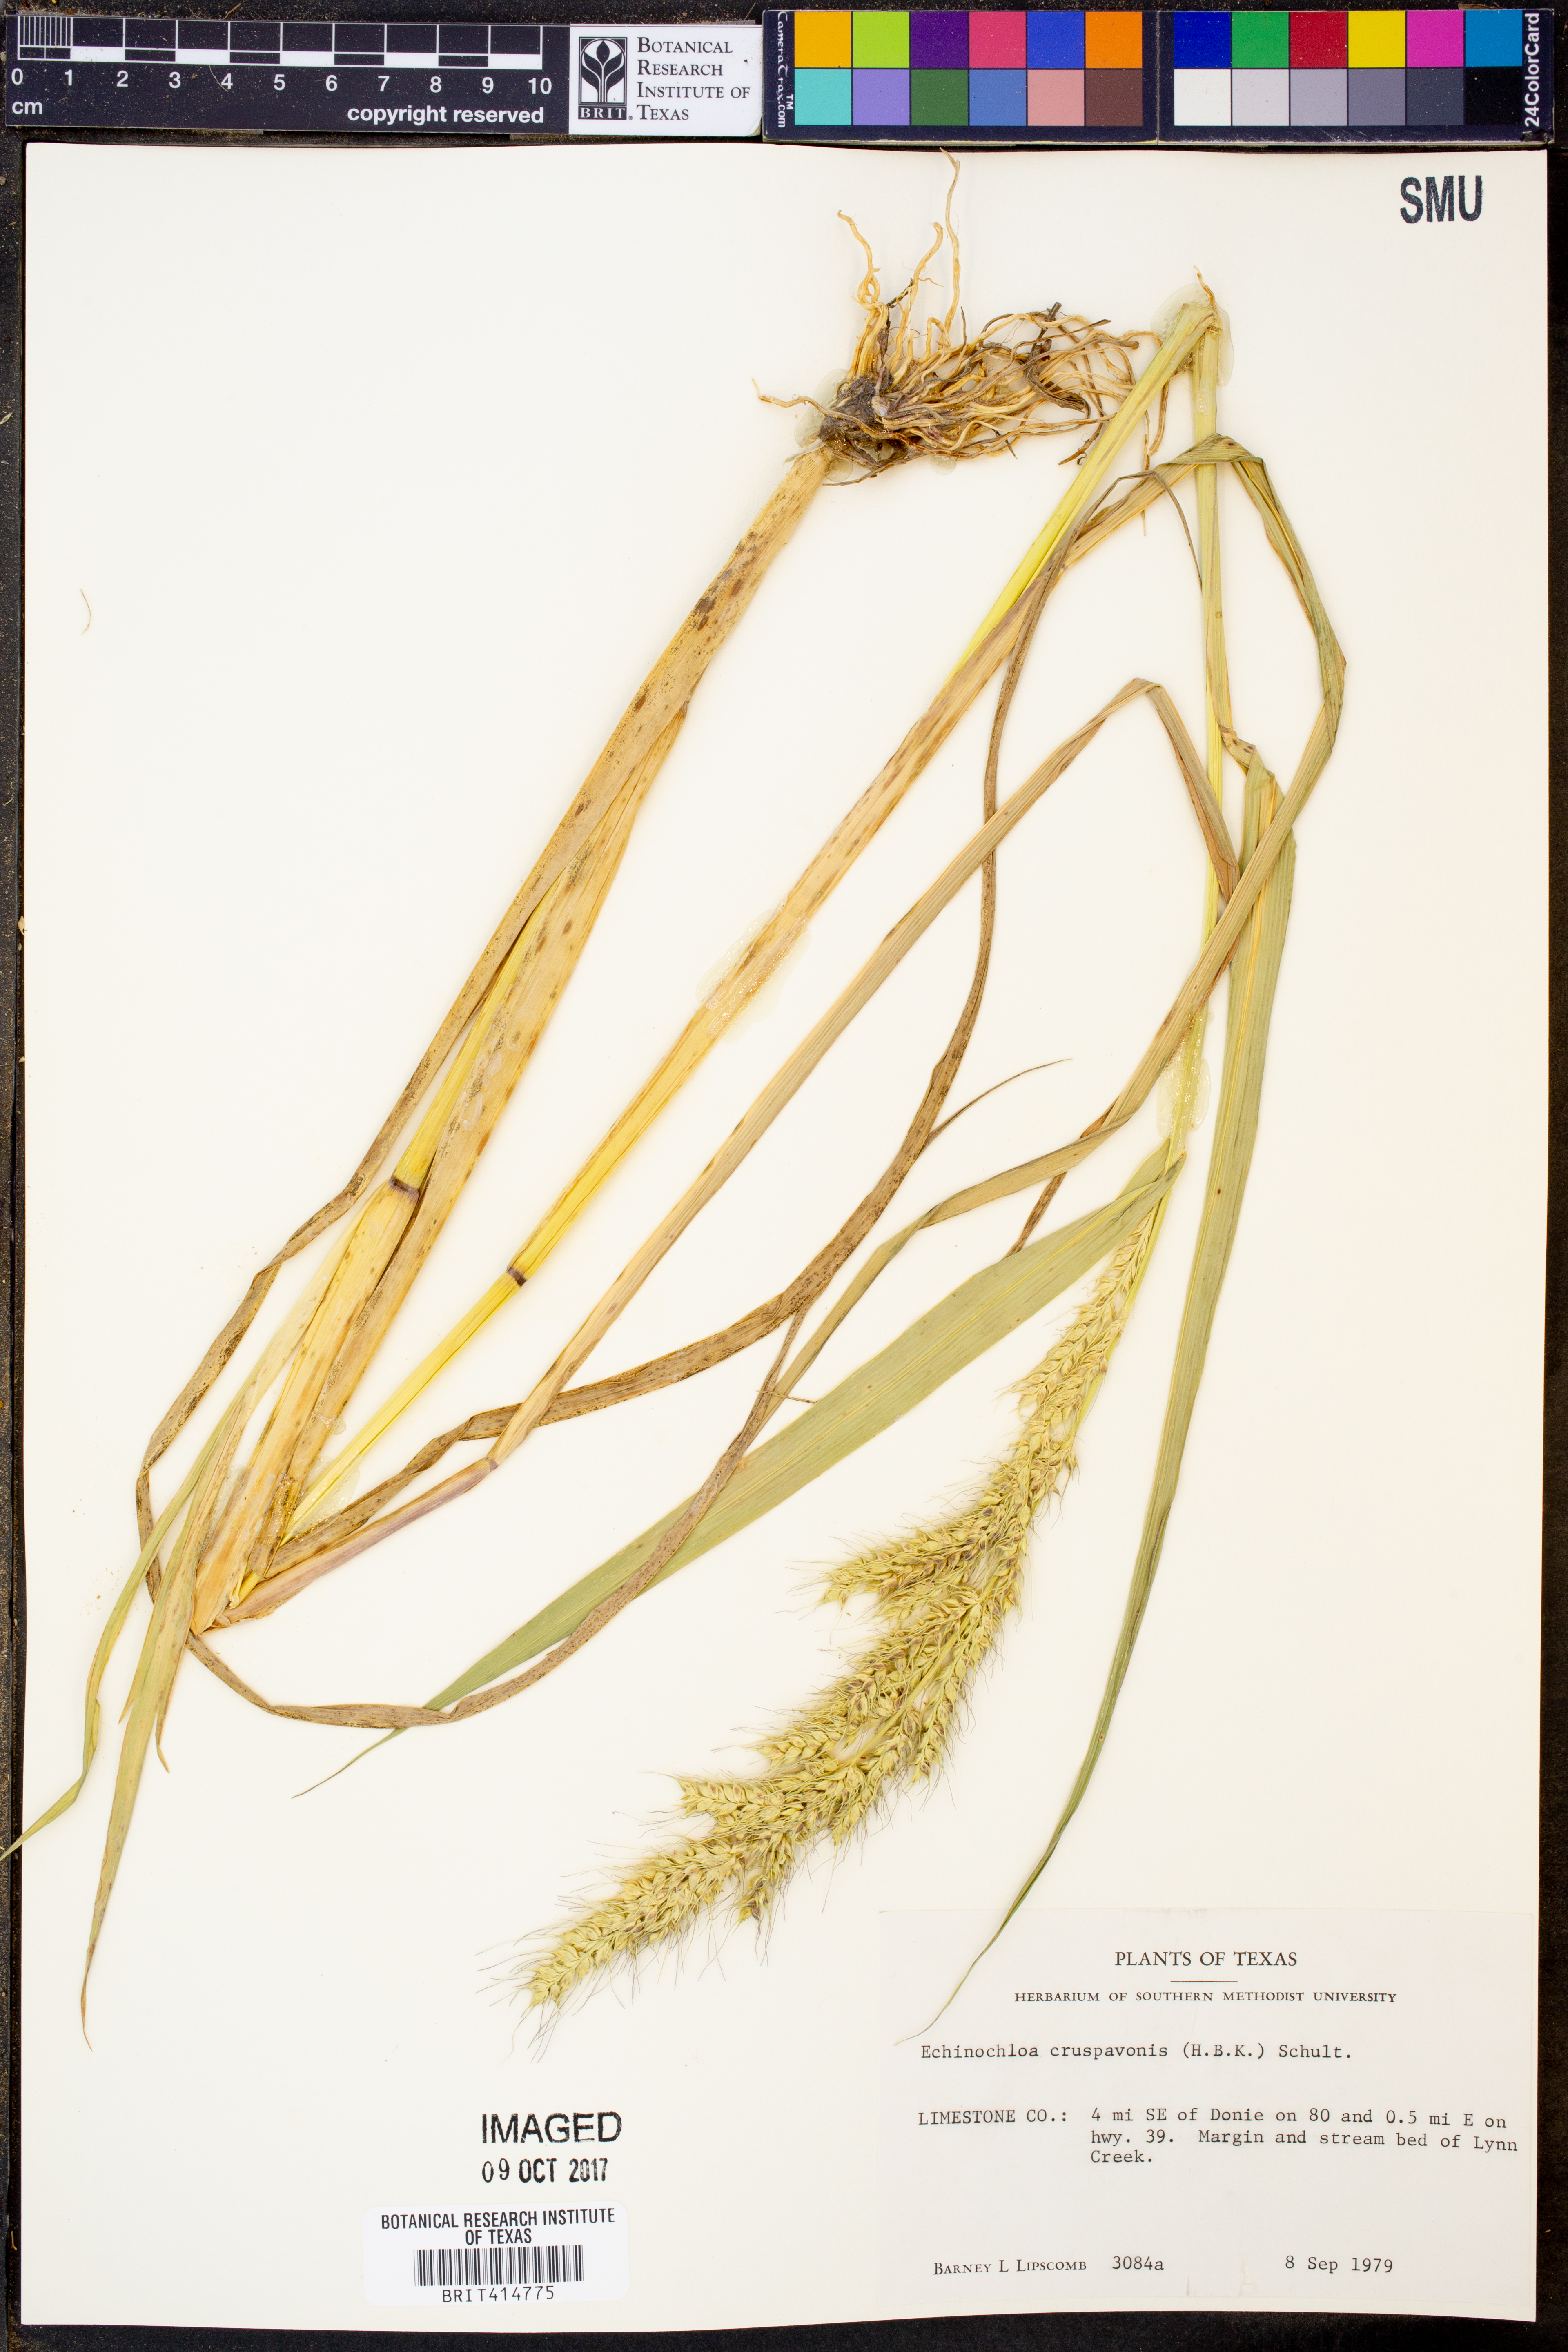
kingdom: Plantae
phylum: Tracheophyta
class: Liliopsida
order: Poales
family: Poaceae
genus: Echinochloa
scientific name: Echinochloa crus-pavonis
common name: Gulf cockspur grass
